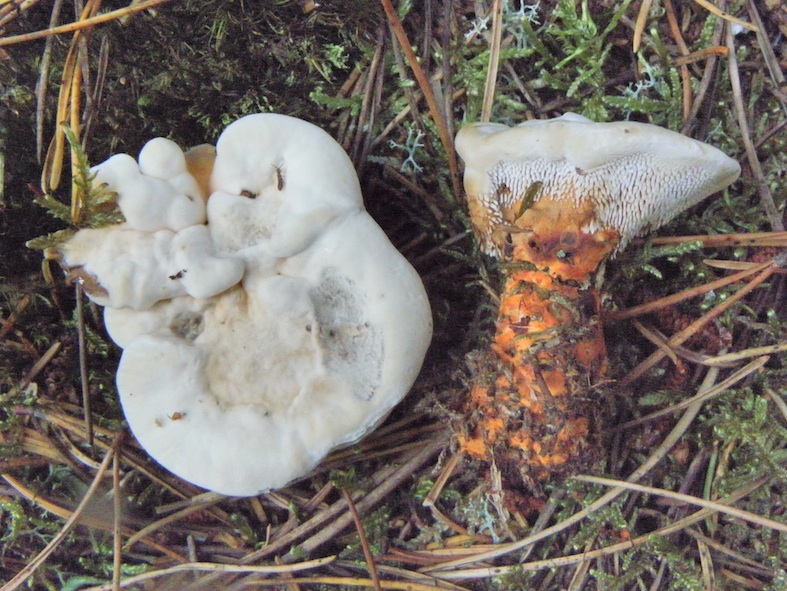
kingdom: Fungi
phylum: Basidiomycota
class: Agaricomycetes
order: Thelephorales
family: Bankeraceae
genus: Hydnellum
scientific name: Hydnellum aurantiacum
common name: orange korkpigsvamp
